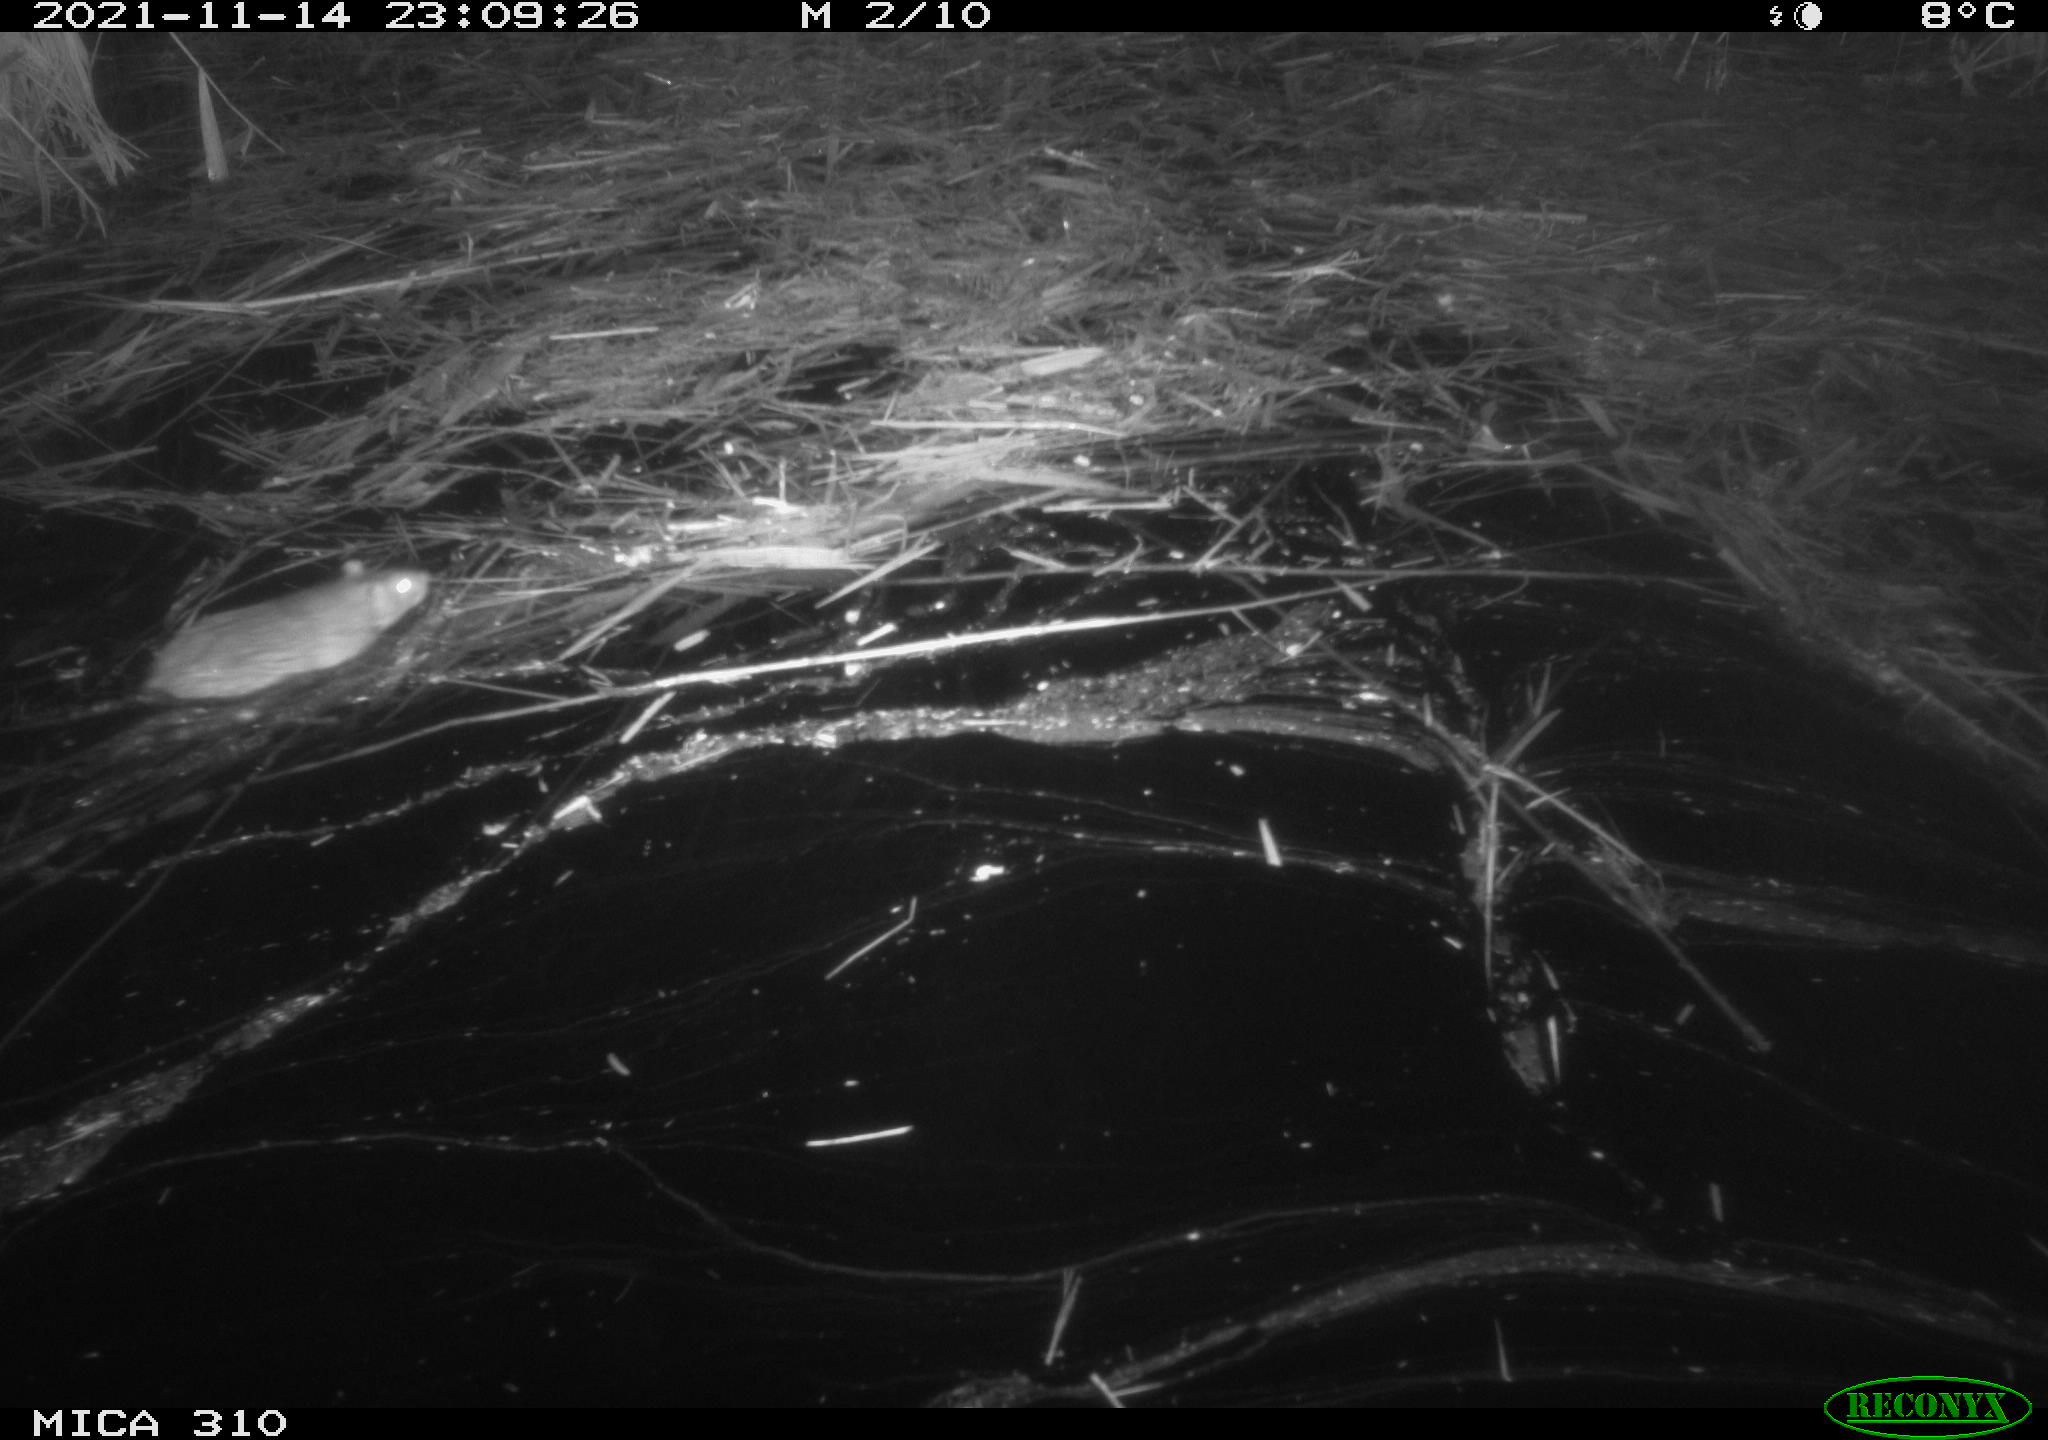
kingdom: Animalia
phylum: Chordata
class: Mammalia
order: Rodentia
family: Muridae
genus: Rattus
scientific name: Rattus norvegicus
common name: Brown rat
